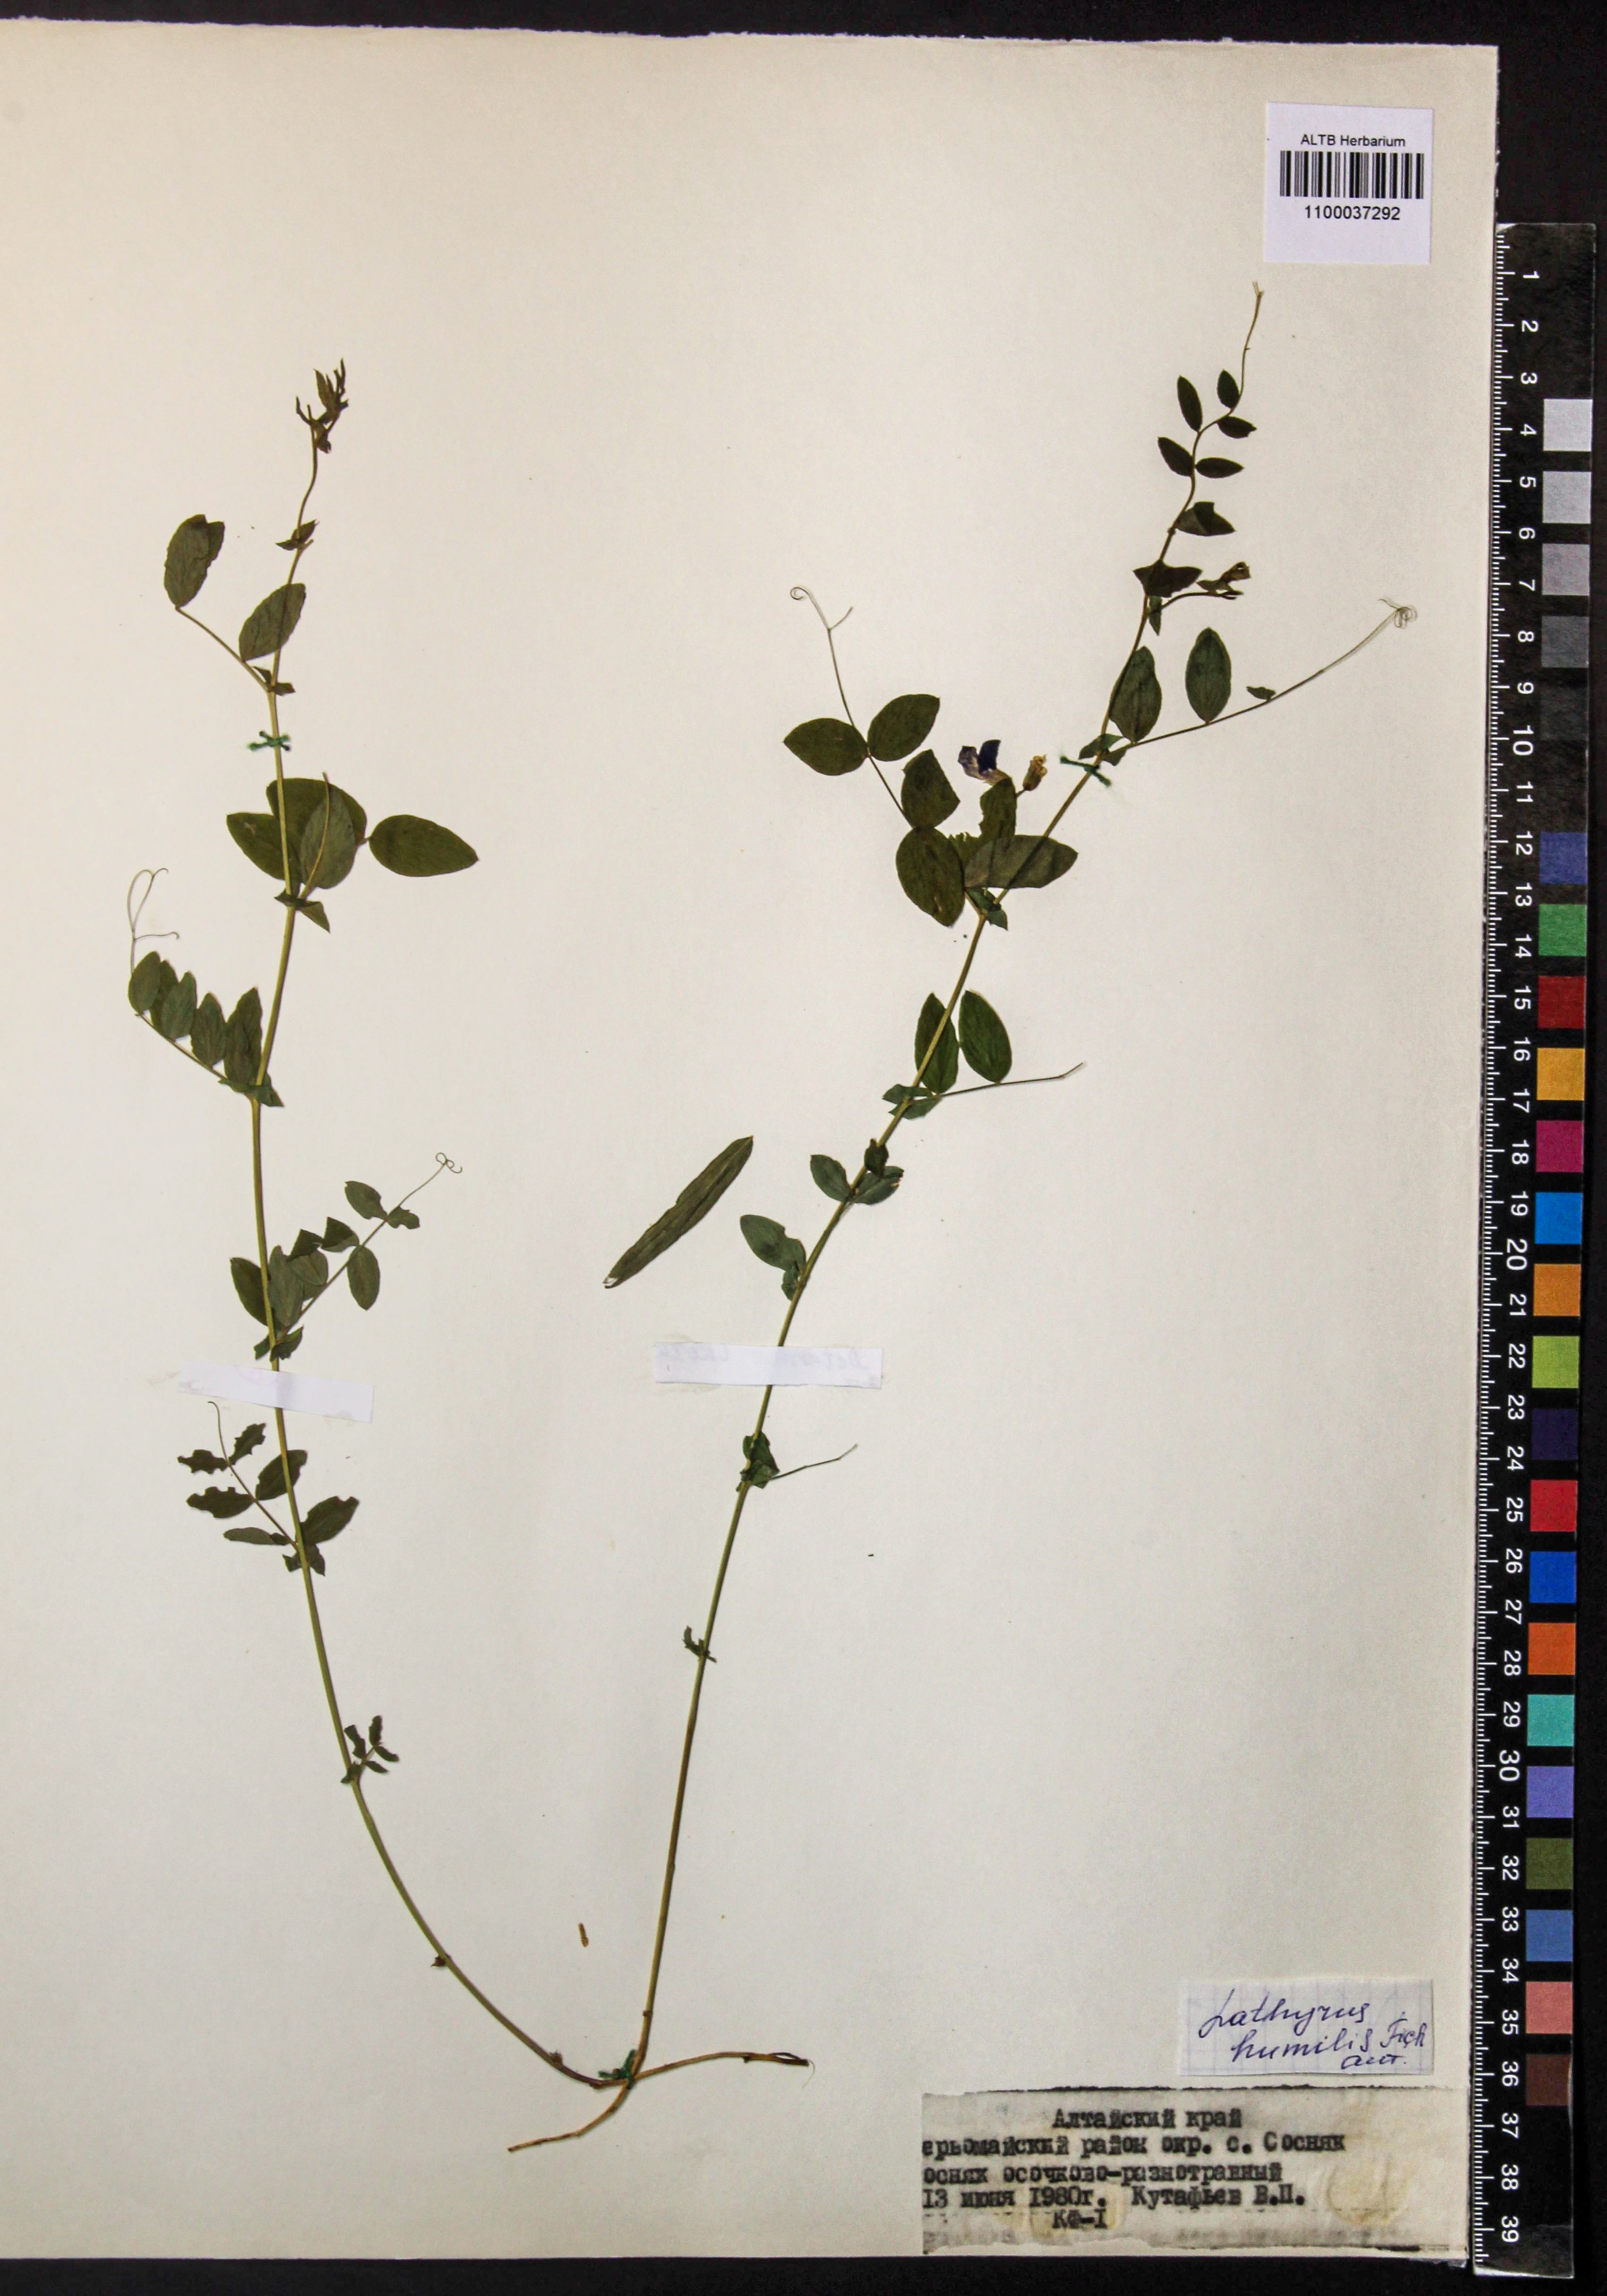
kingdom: Plantae
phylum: Tracheophyta
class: Magnoliopsida
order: Fabales
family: Fabaceae
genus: Lathyrus
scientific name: Lathyrus humilis
